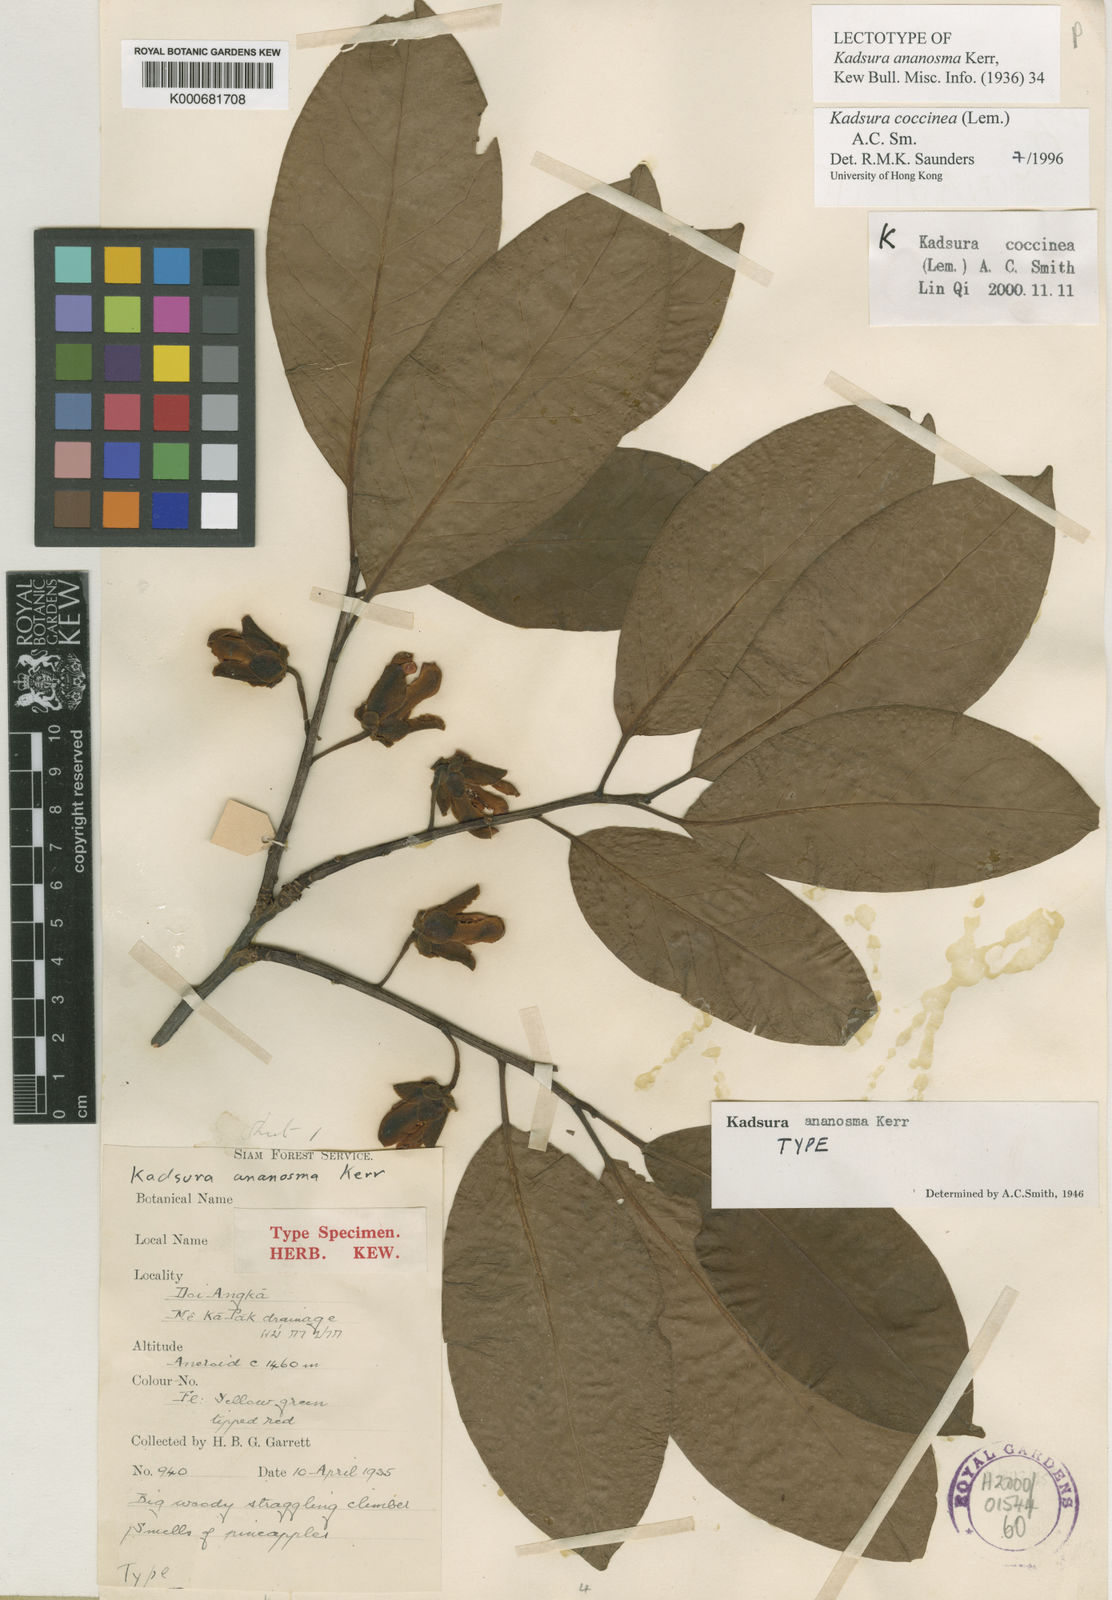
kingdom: Plantae
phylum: Tracheophyta
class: Magnoliopsida
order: Austrobaileyales
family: Schisandraceae
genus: Kadsura
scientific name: Kadsura coccinea
